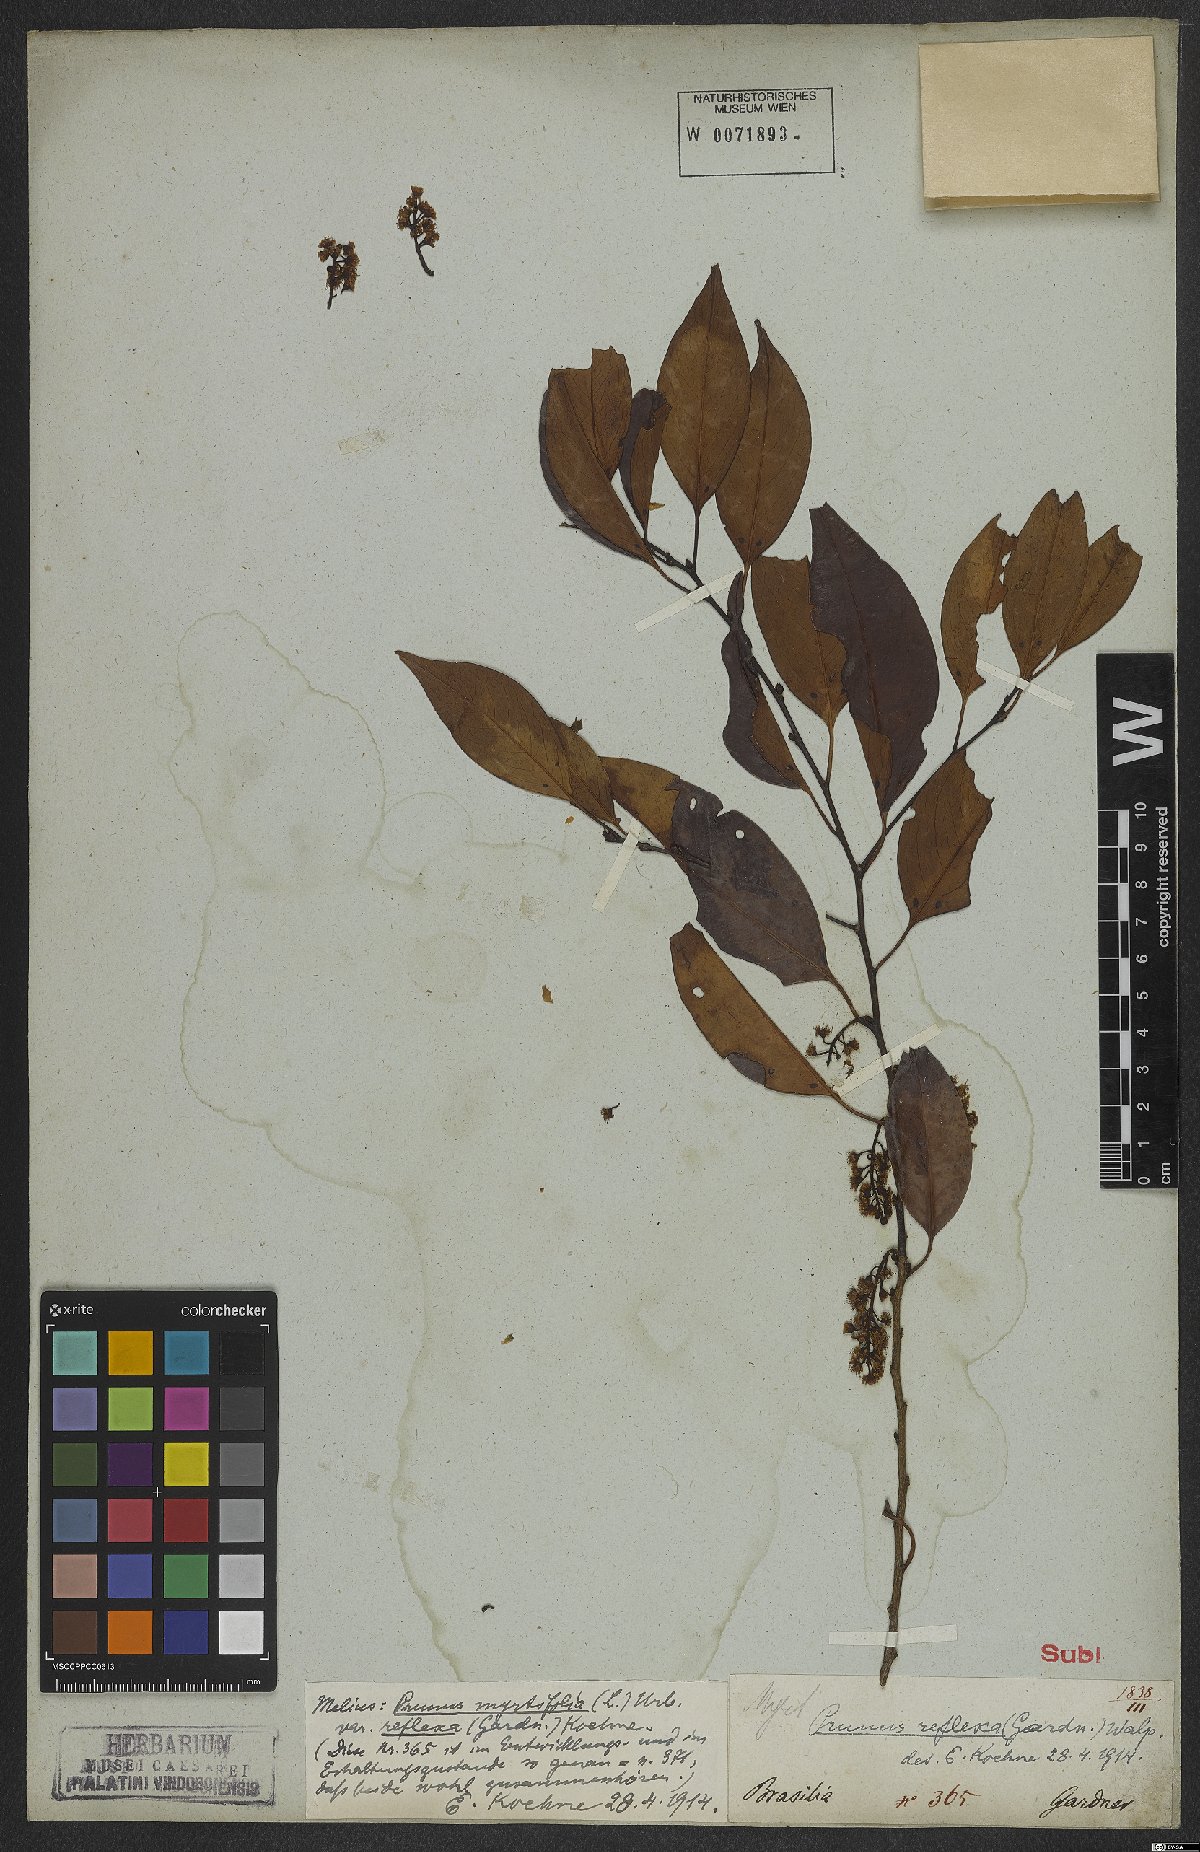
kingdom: Plantae
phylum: Tracheophyta
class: Magnoliopsida
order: Rosales
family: Rosaceae
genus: Prunus
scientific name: Prunus myrtifolia
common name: West indies cherry
